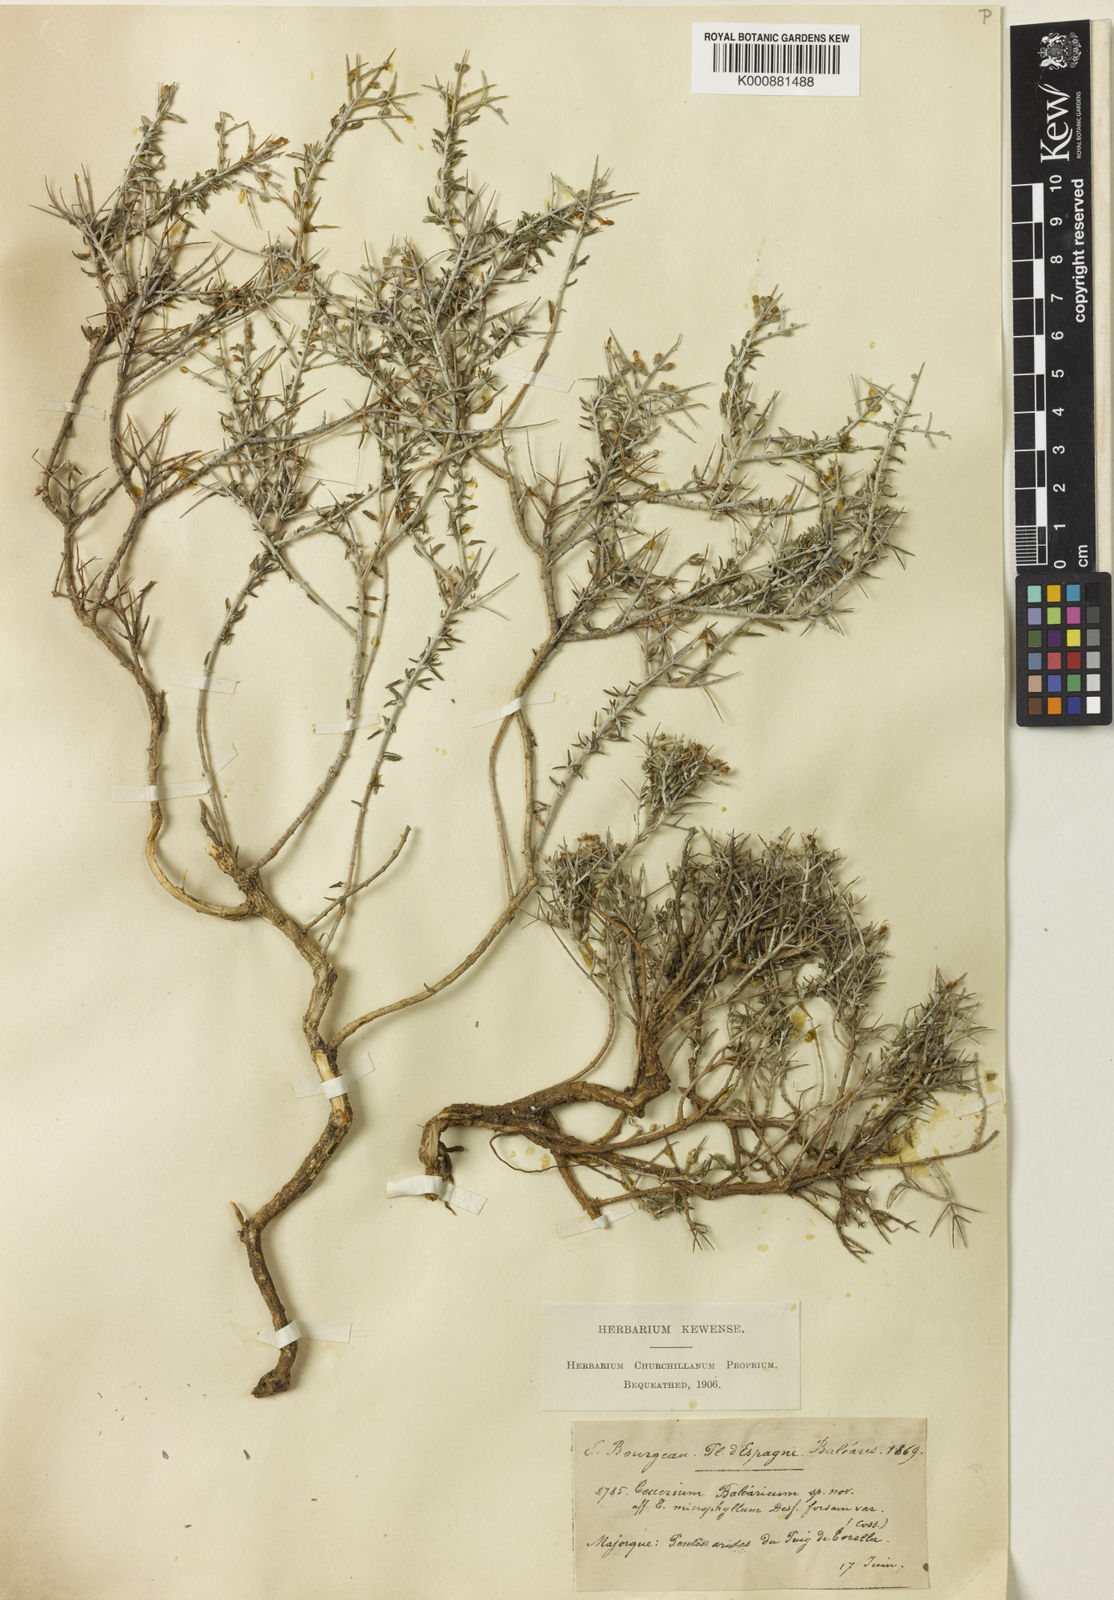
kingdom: Plantae
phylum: Tracheophyta
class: Magnoliopsida
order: Lamiales
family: Lamiaceae
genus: Teucrium
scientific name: Teucrium subspinosum
